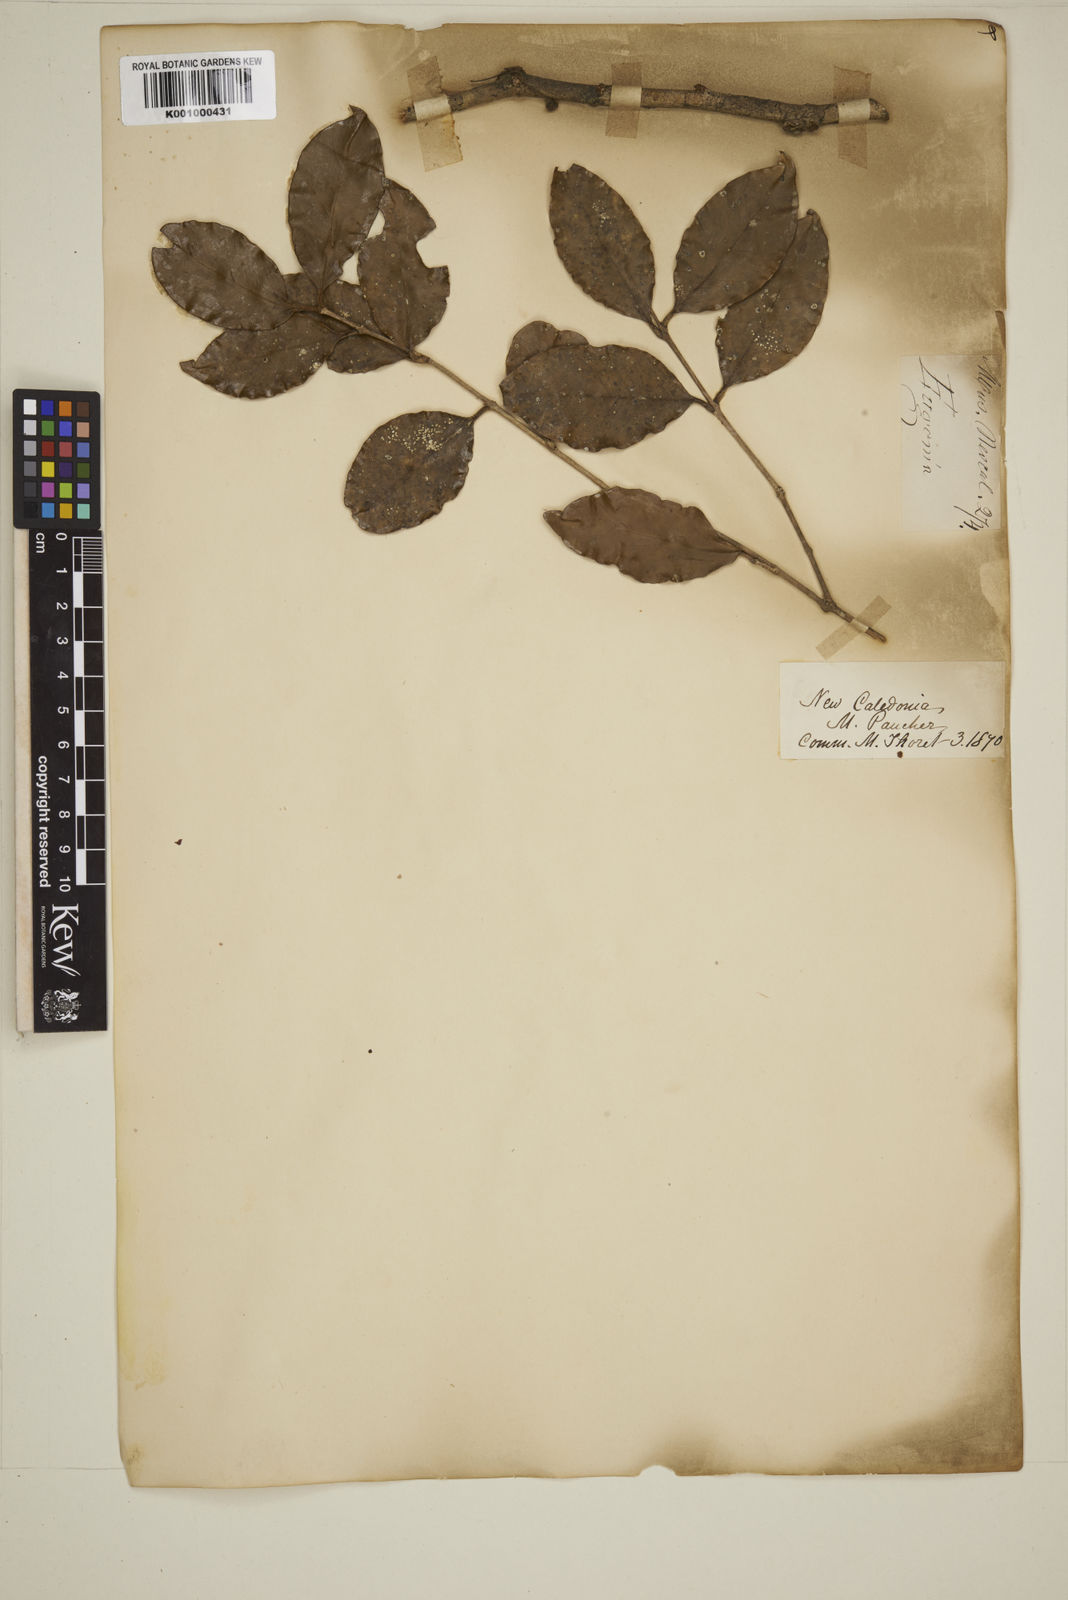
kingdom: Plantae
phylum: Tracheophyta
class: Magnoliopsida
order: Myrtales
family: Myrtaceae
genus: Eugenia
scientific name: Eugenia
